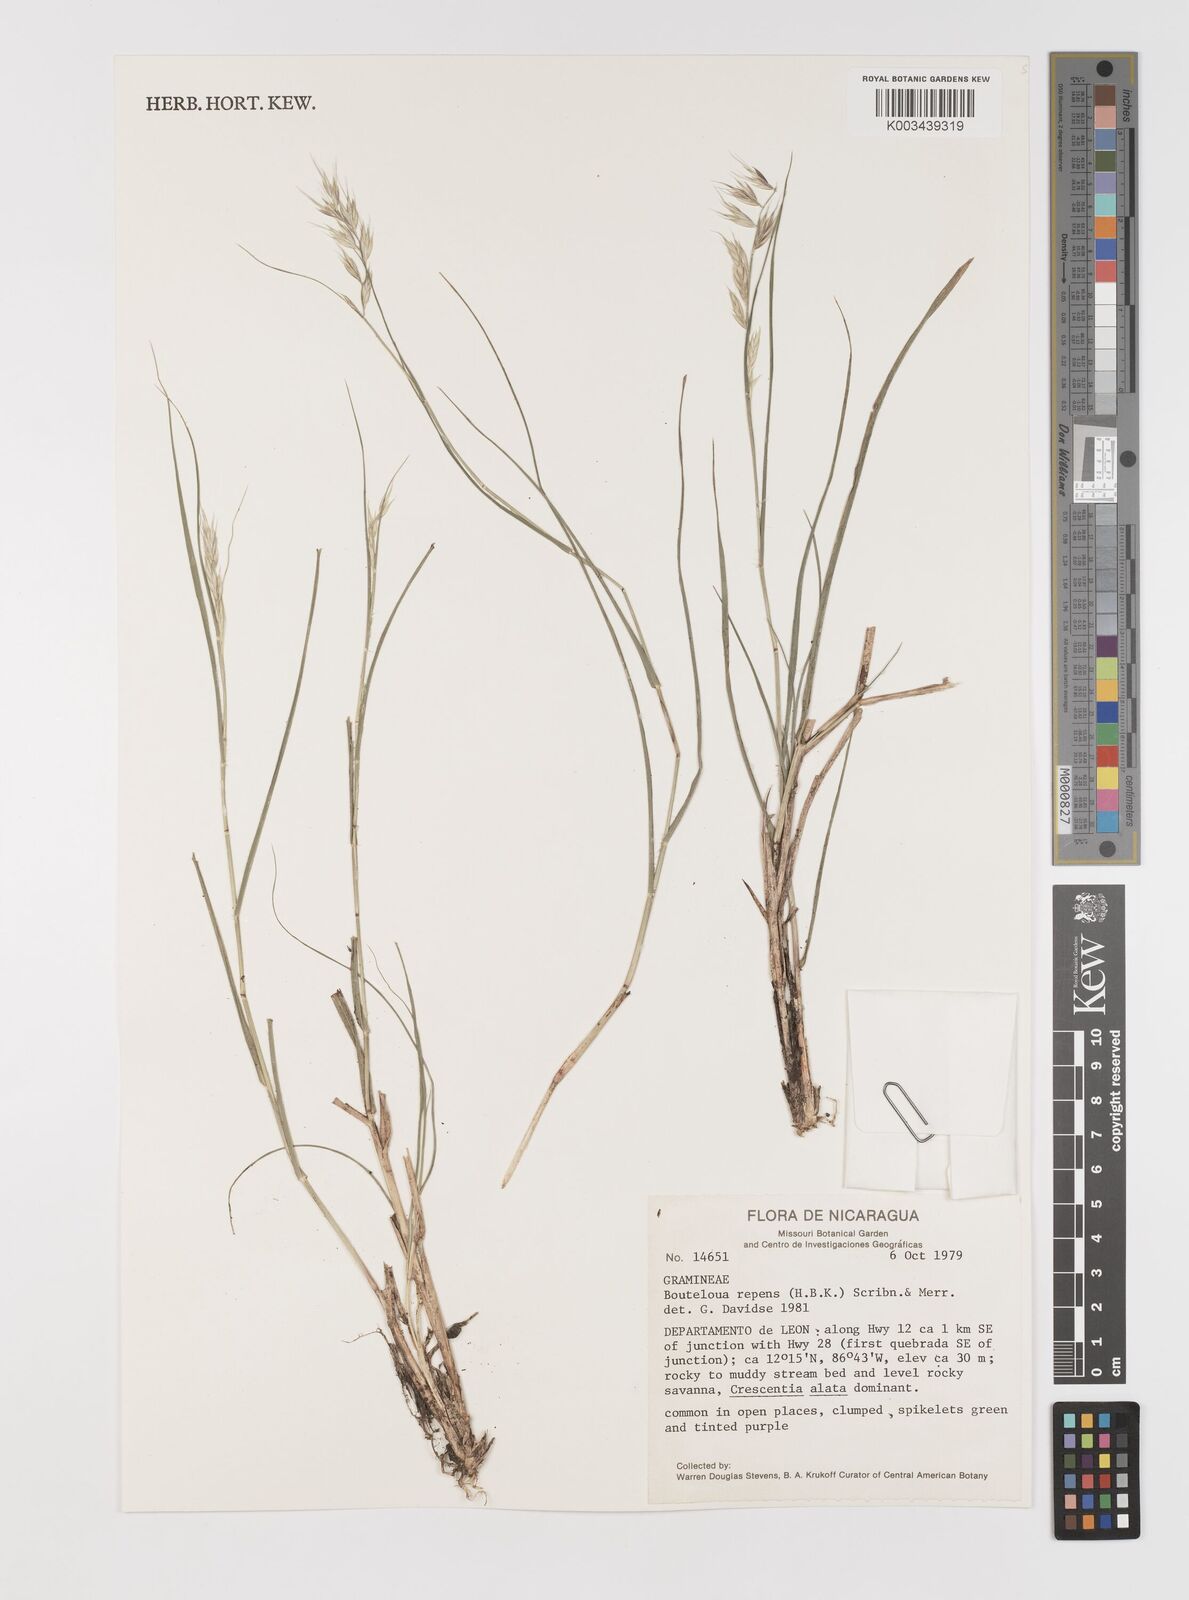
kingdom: Plantae
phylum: Tracheophyta
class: Liliopsida
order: Poales
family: Poaceae
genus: Bouteloua
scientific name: Bouteloua repens
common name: Slender grama
